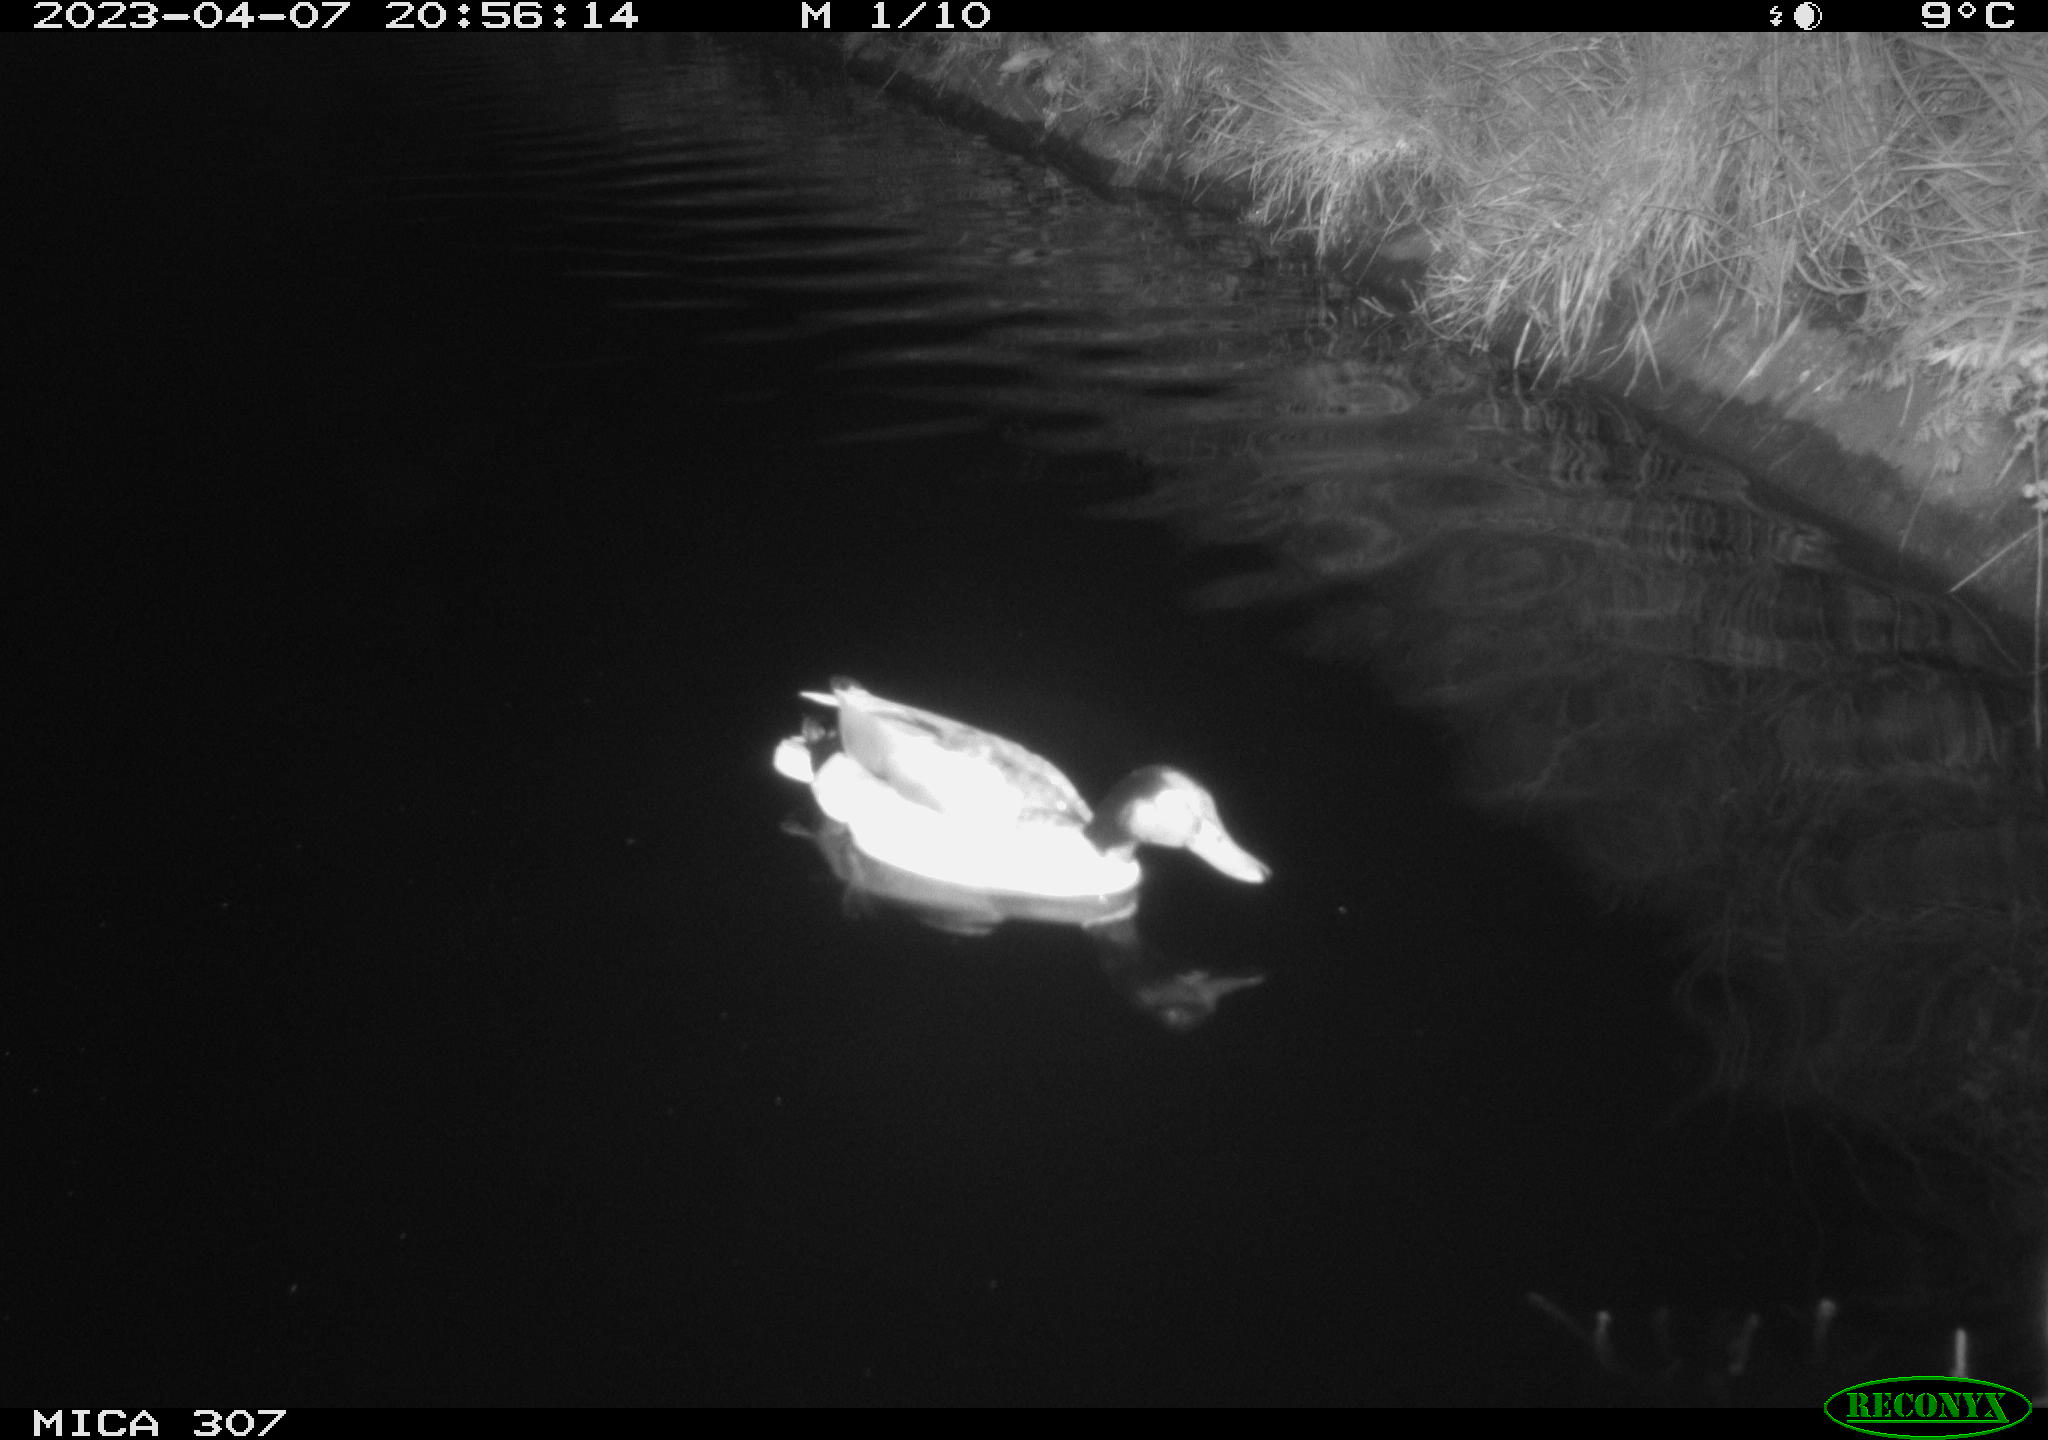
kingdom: Animalia
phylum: Chordata
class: Aves
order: Anseriformes
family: Anatidae
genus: Anas
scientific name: Anas
